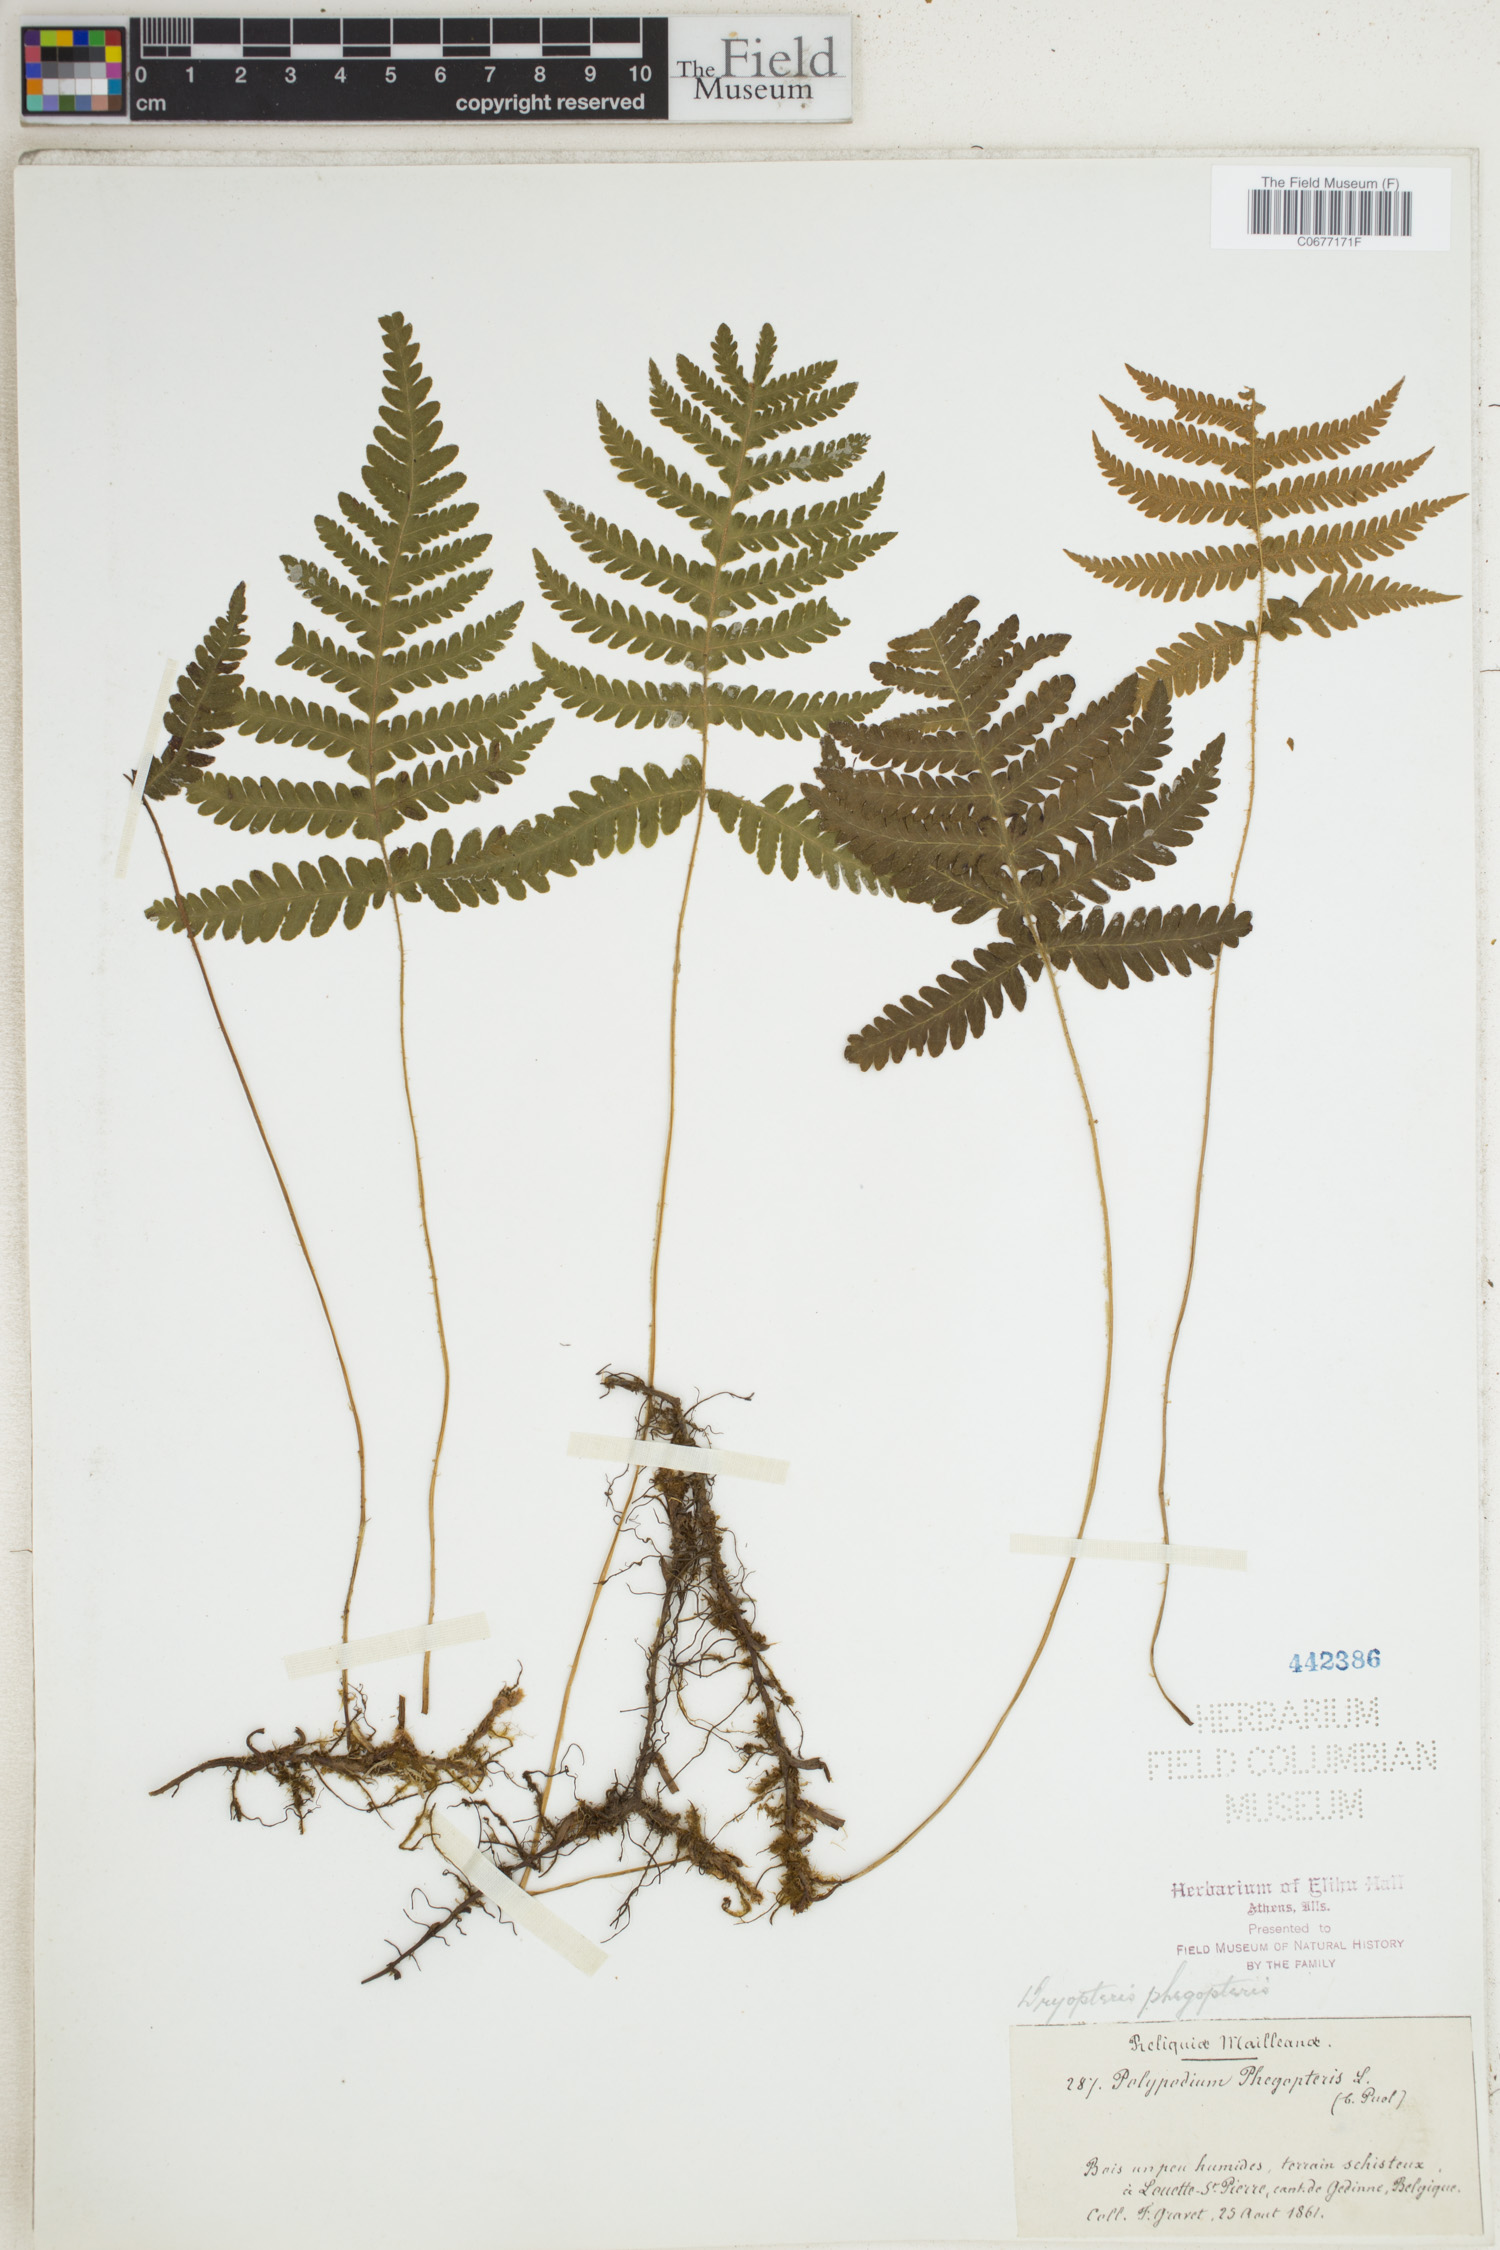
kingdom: Plantae
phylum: Tracheophyta
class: Polypodiopsida
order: Polypodiales
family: Thelypteridaceae
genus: Phegopteris
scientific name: Phegopteris connectilis
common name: Beech fern
